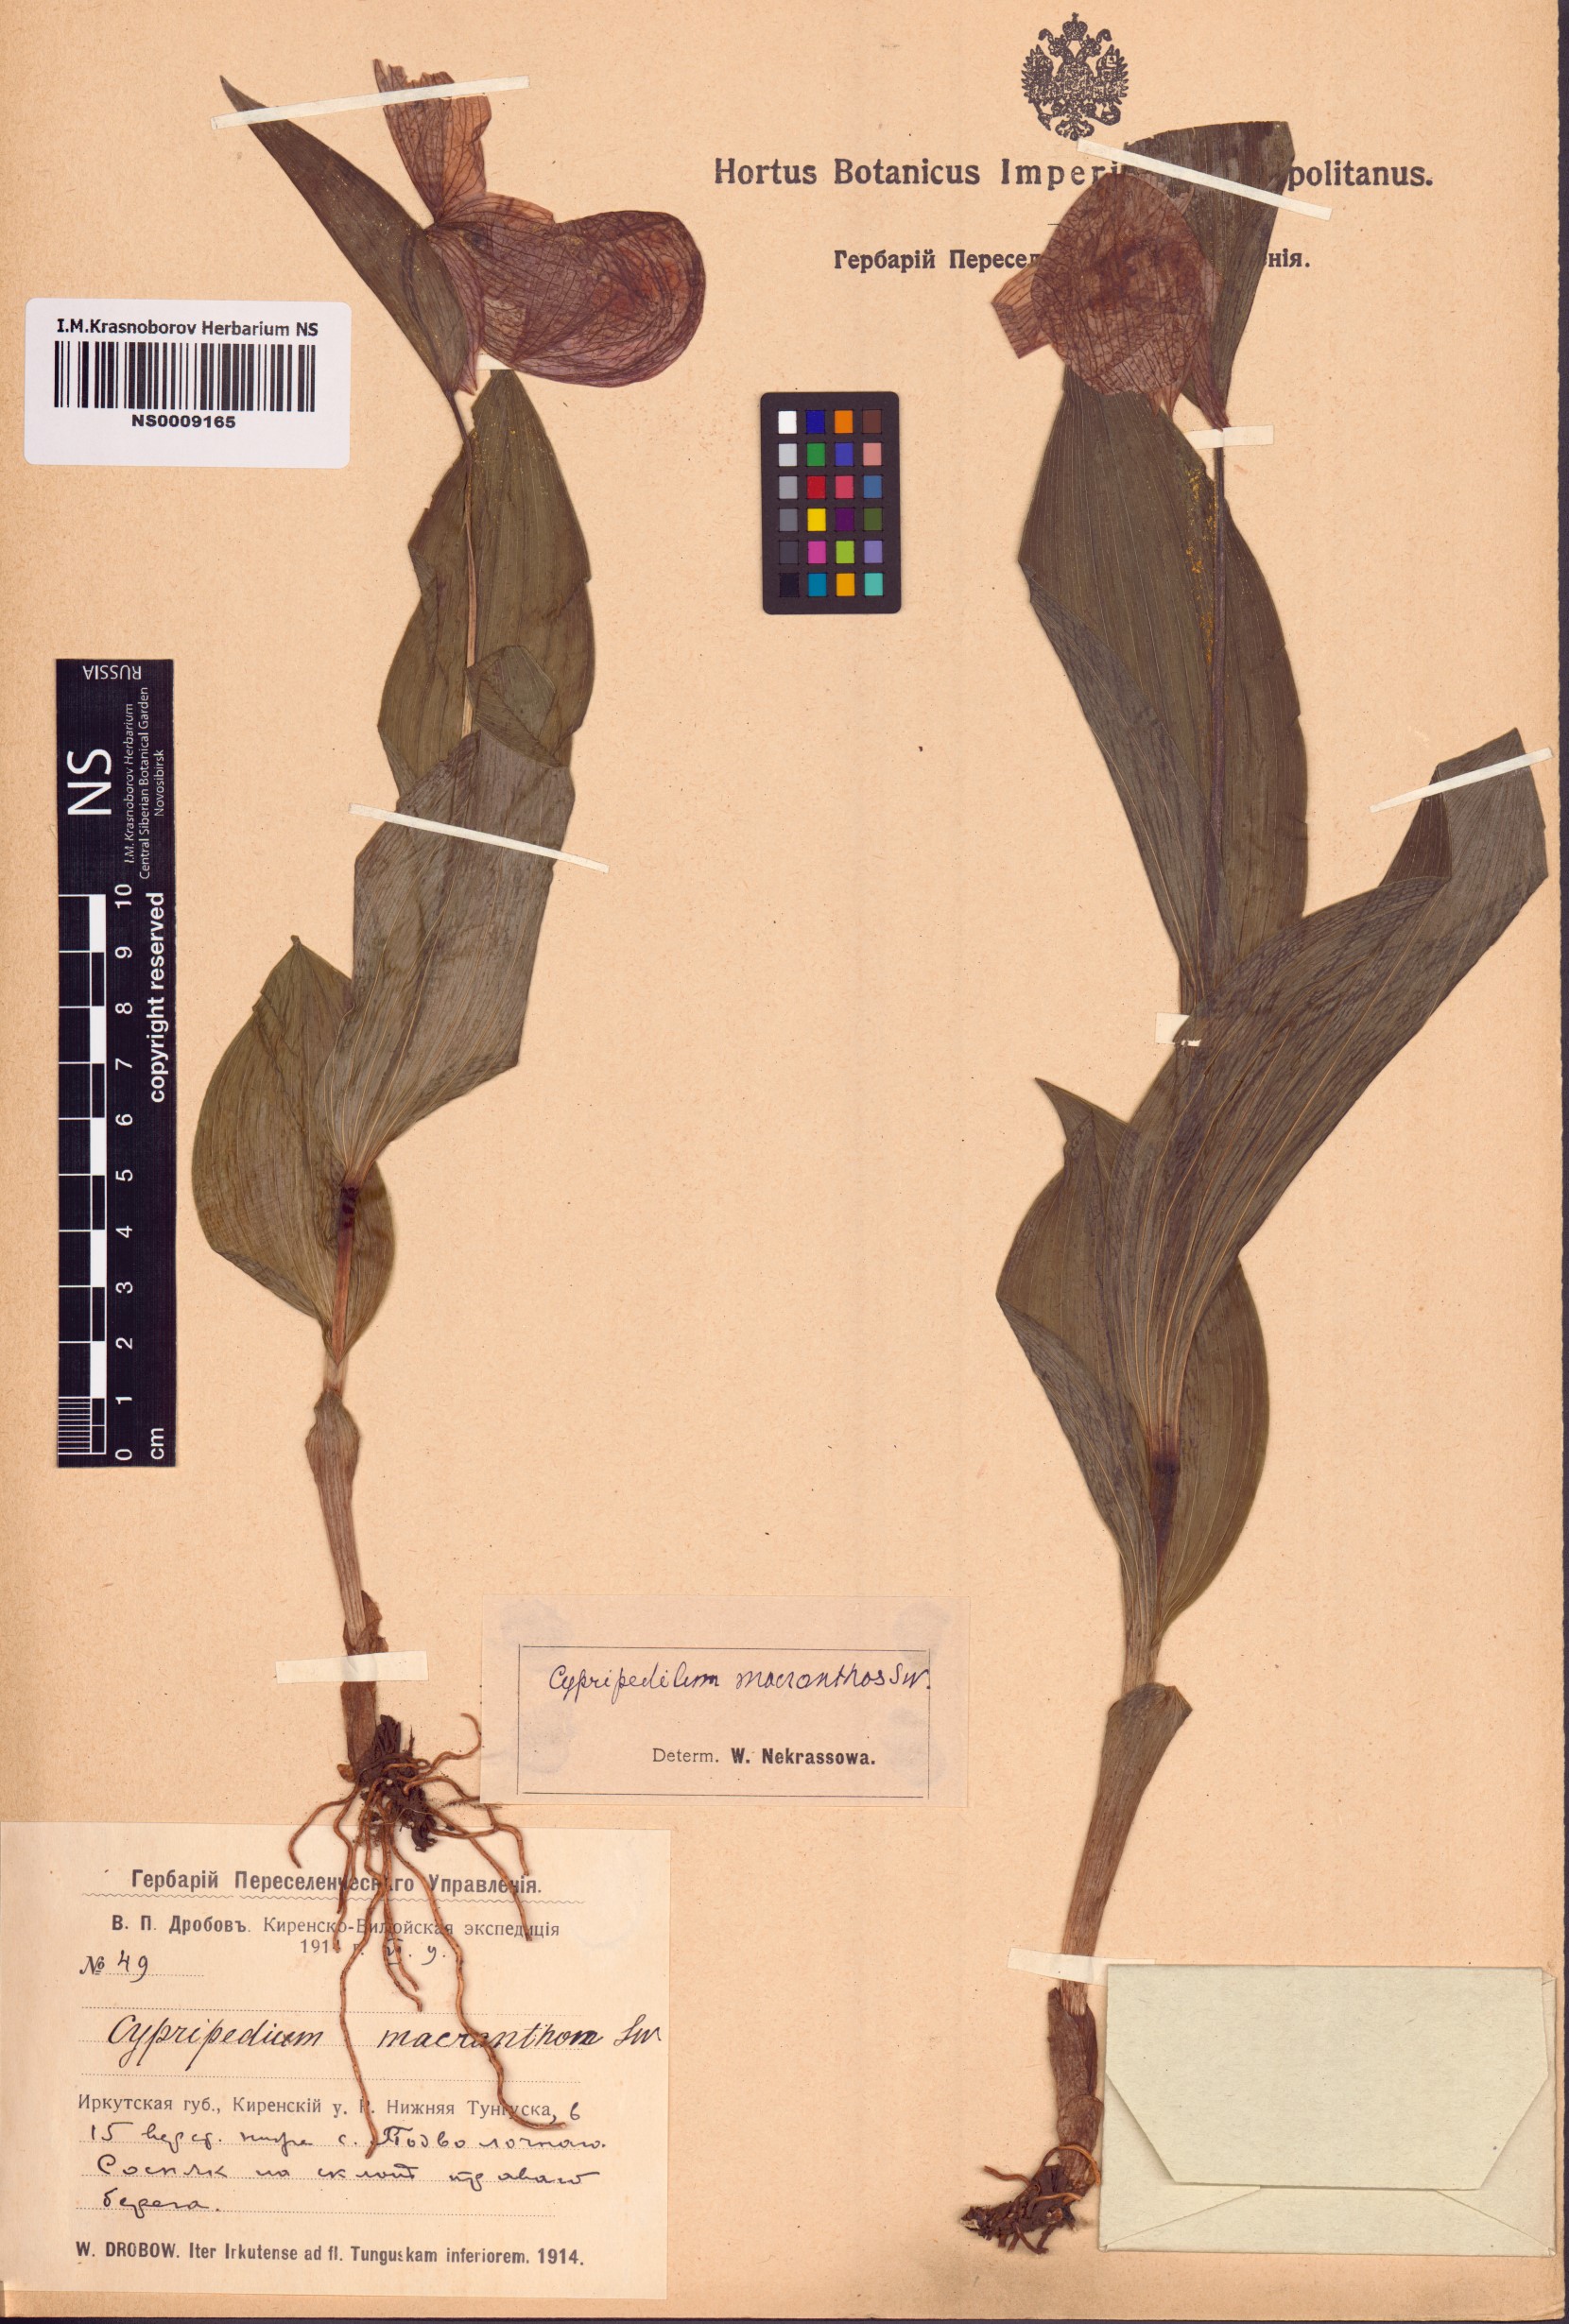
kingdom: Plantae
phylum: Tracheophyta
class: Liliopsida
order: Asparagales
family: Orchidaceae
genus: Cypripedium
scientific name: Cypripedium macranthos
